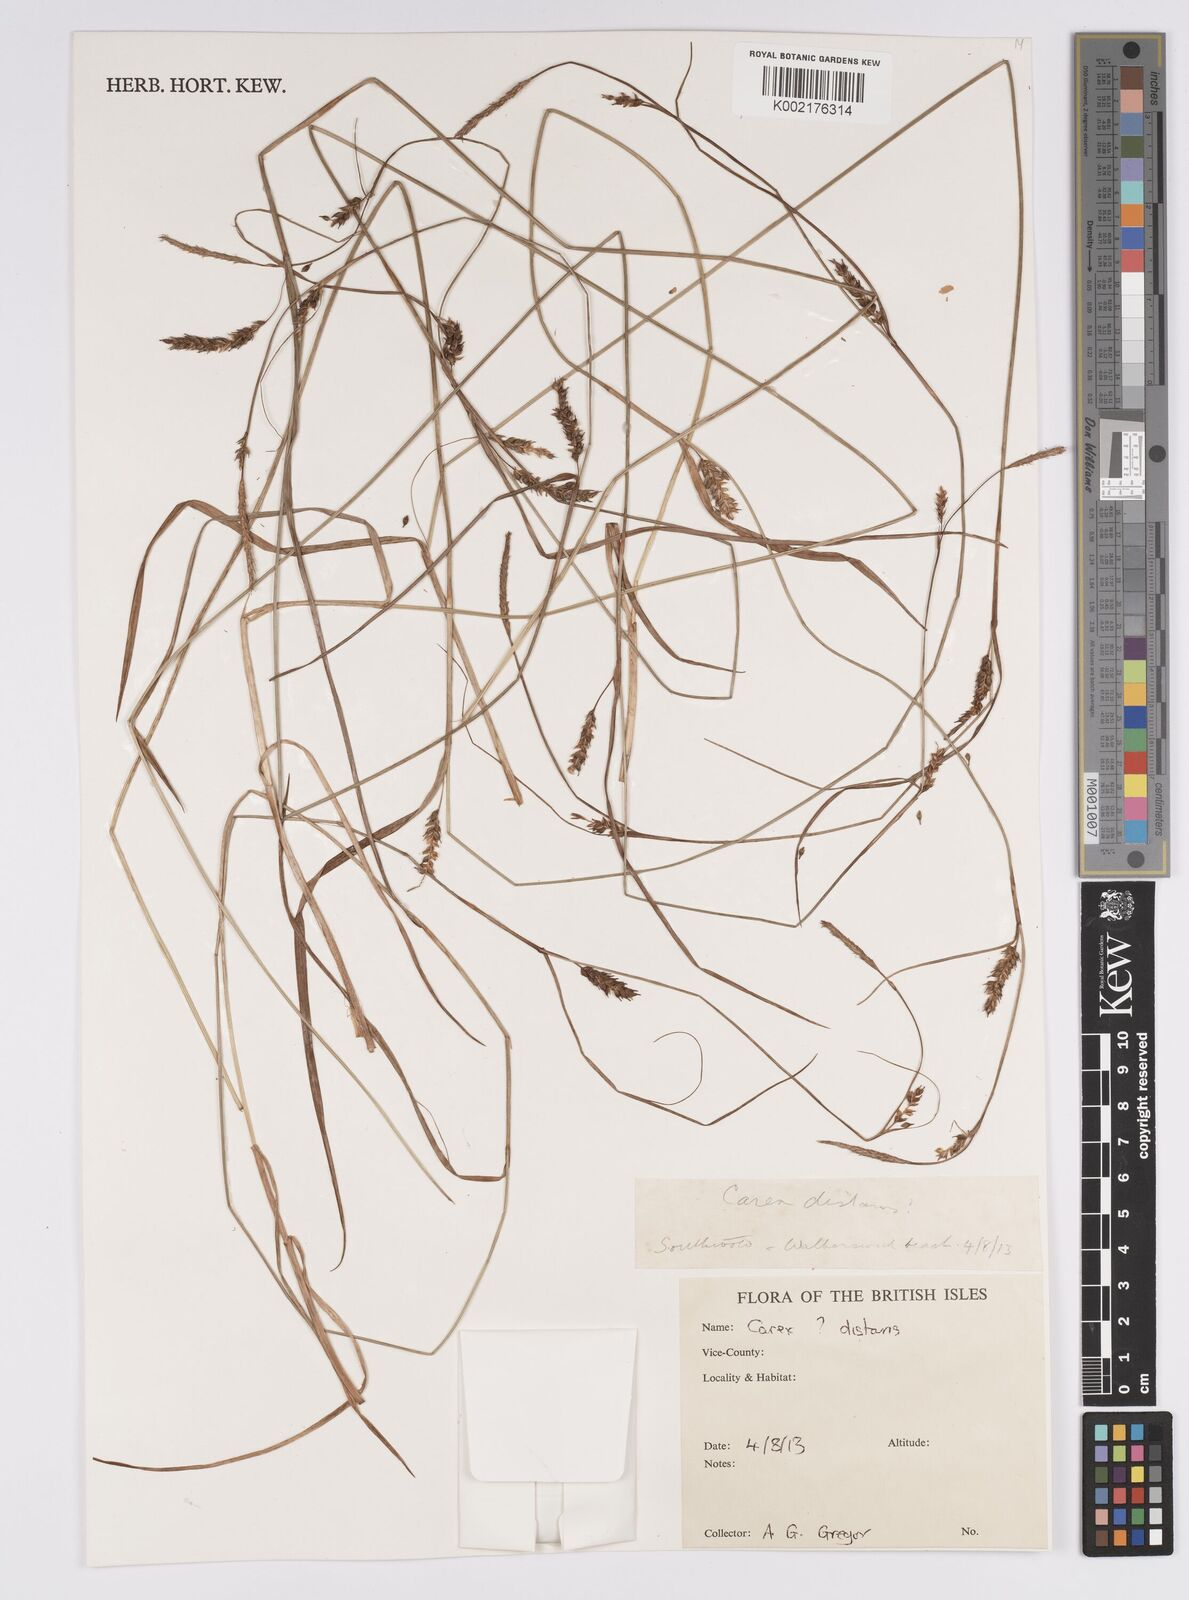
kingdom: Plantae
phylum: Tracheophyta
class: Liliopsida
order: Poales
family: Cyperaceae
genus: Carex
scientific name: Carex distans
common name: Distant sedge
